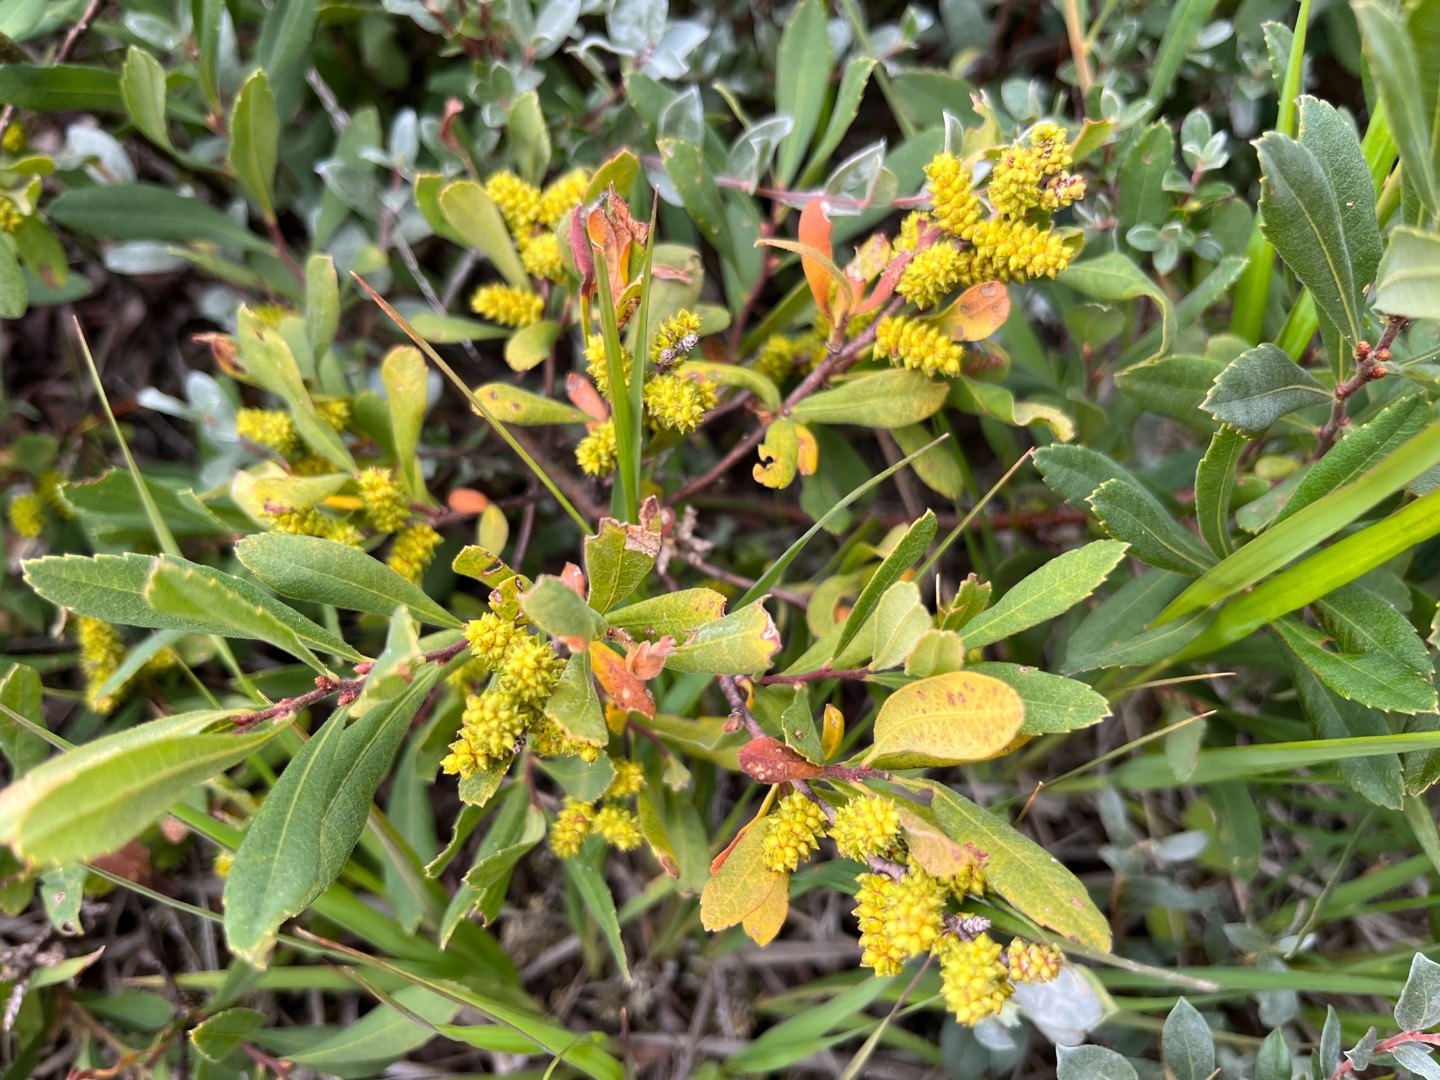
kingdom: Plantae
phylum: Tracheophyta
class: Magnoliopsida
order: Fagales
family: Myricaceae
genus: Myrica
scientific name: Myrica gale
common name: Pors
